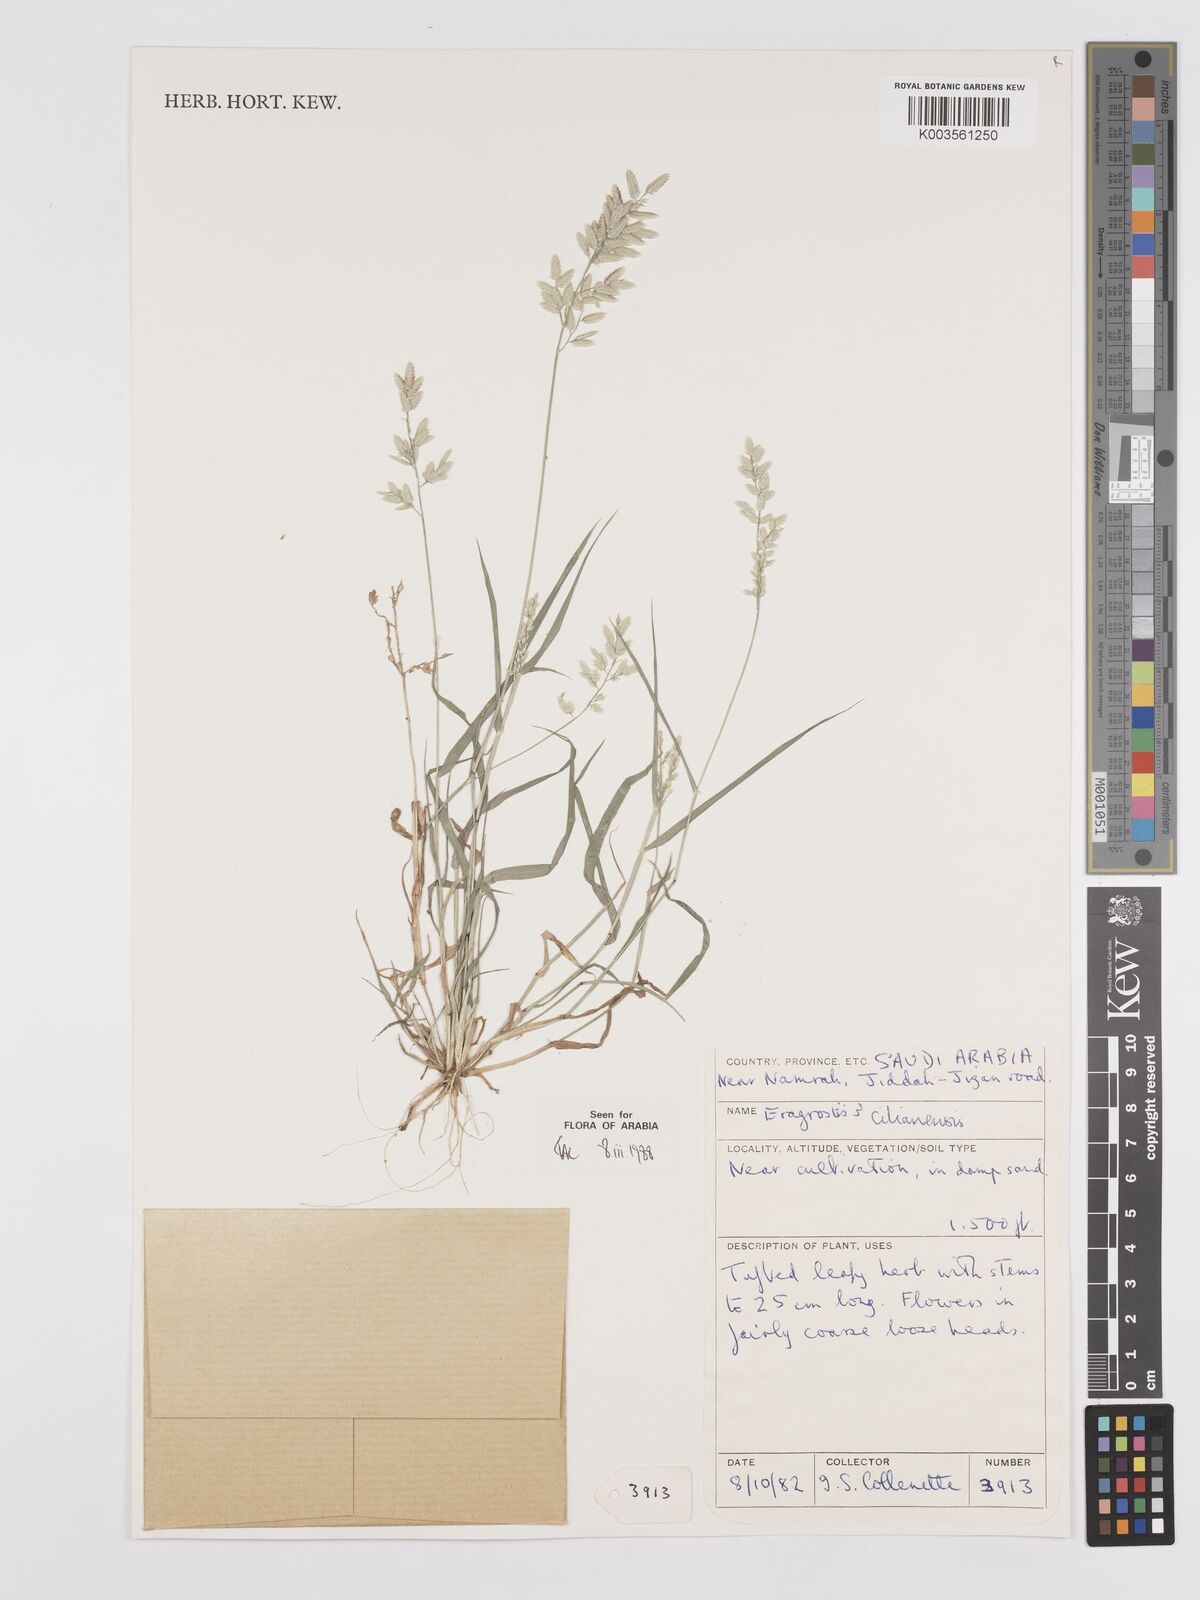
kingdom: Plantae
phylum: Tracheophyta
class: Liliopsida
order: Poales
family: Poaceae
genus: Eragrostis
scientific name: Eragrostis cilianensis
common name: Stinkgrass
